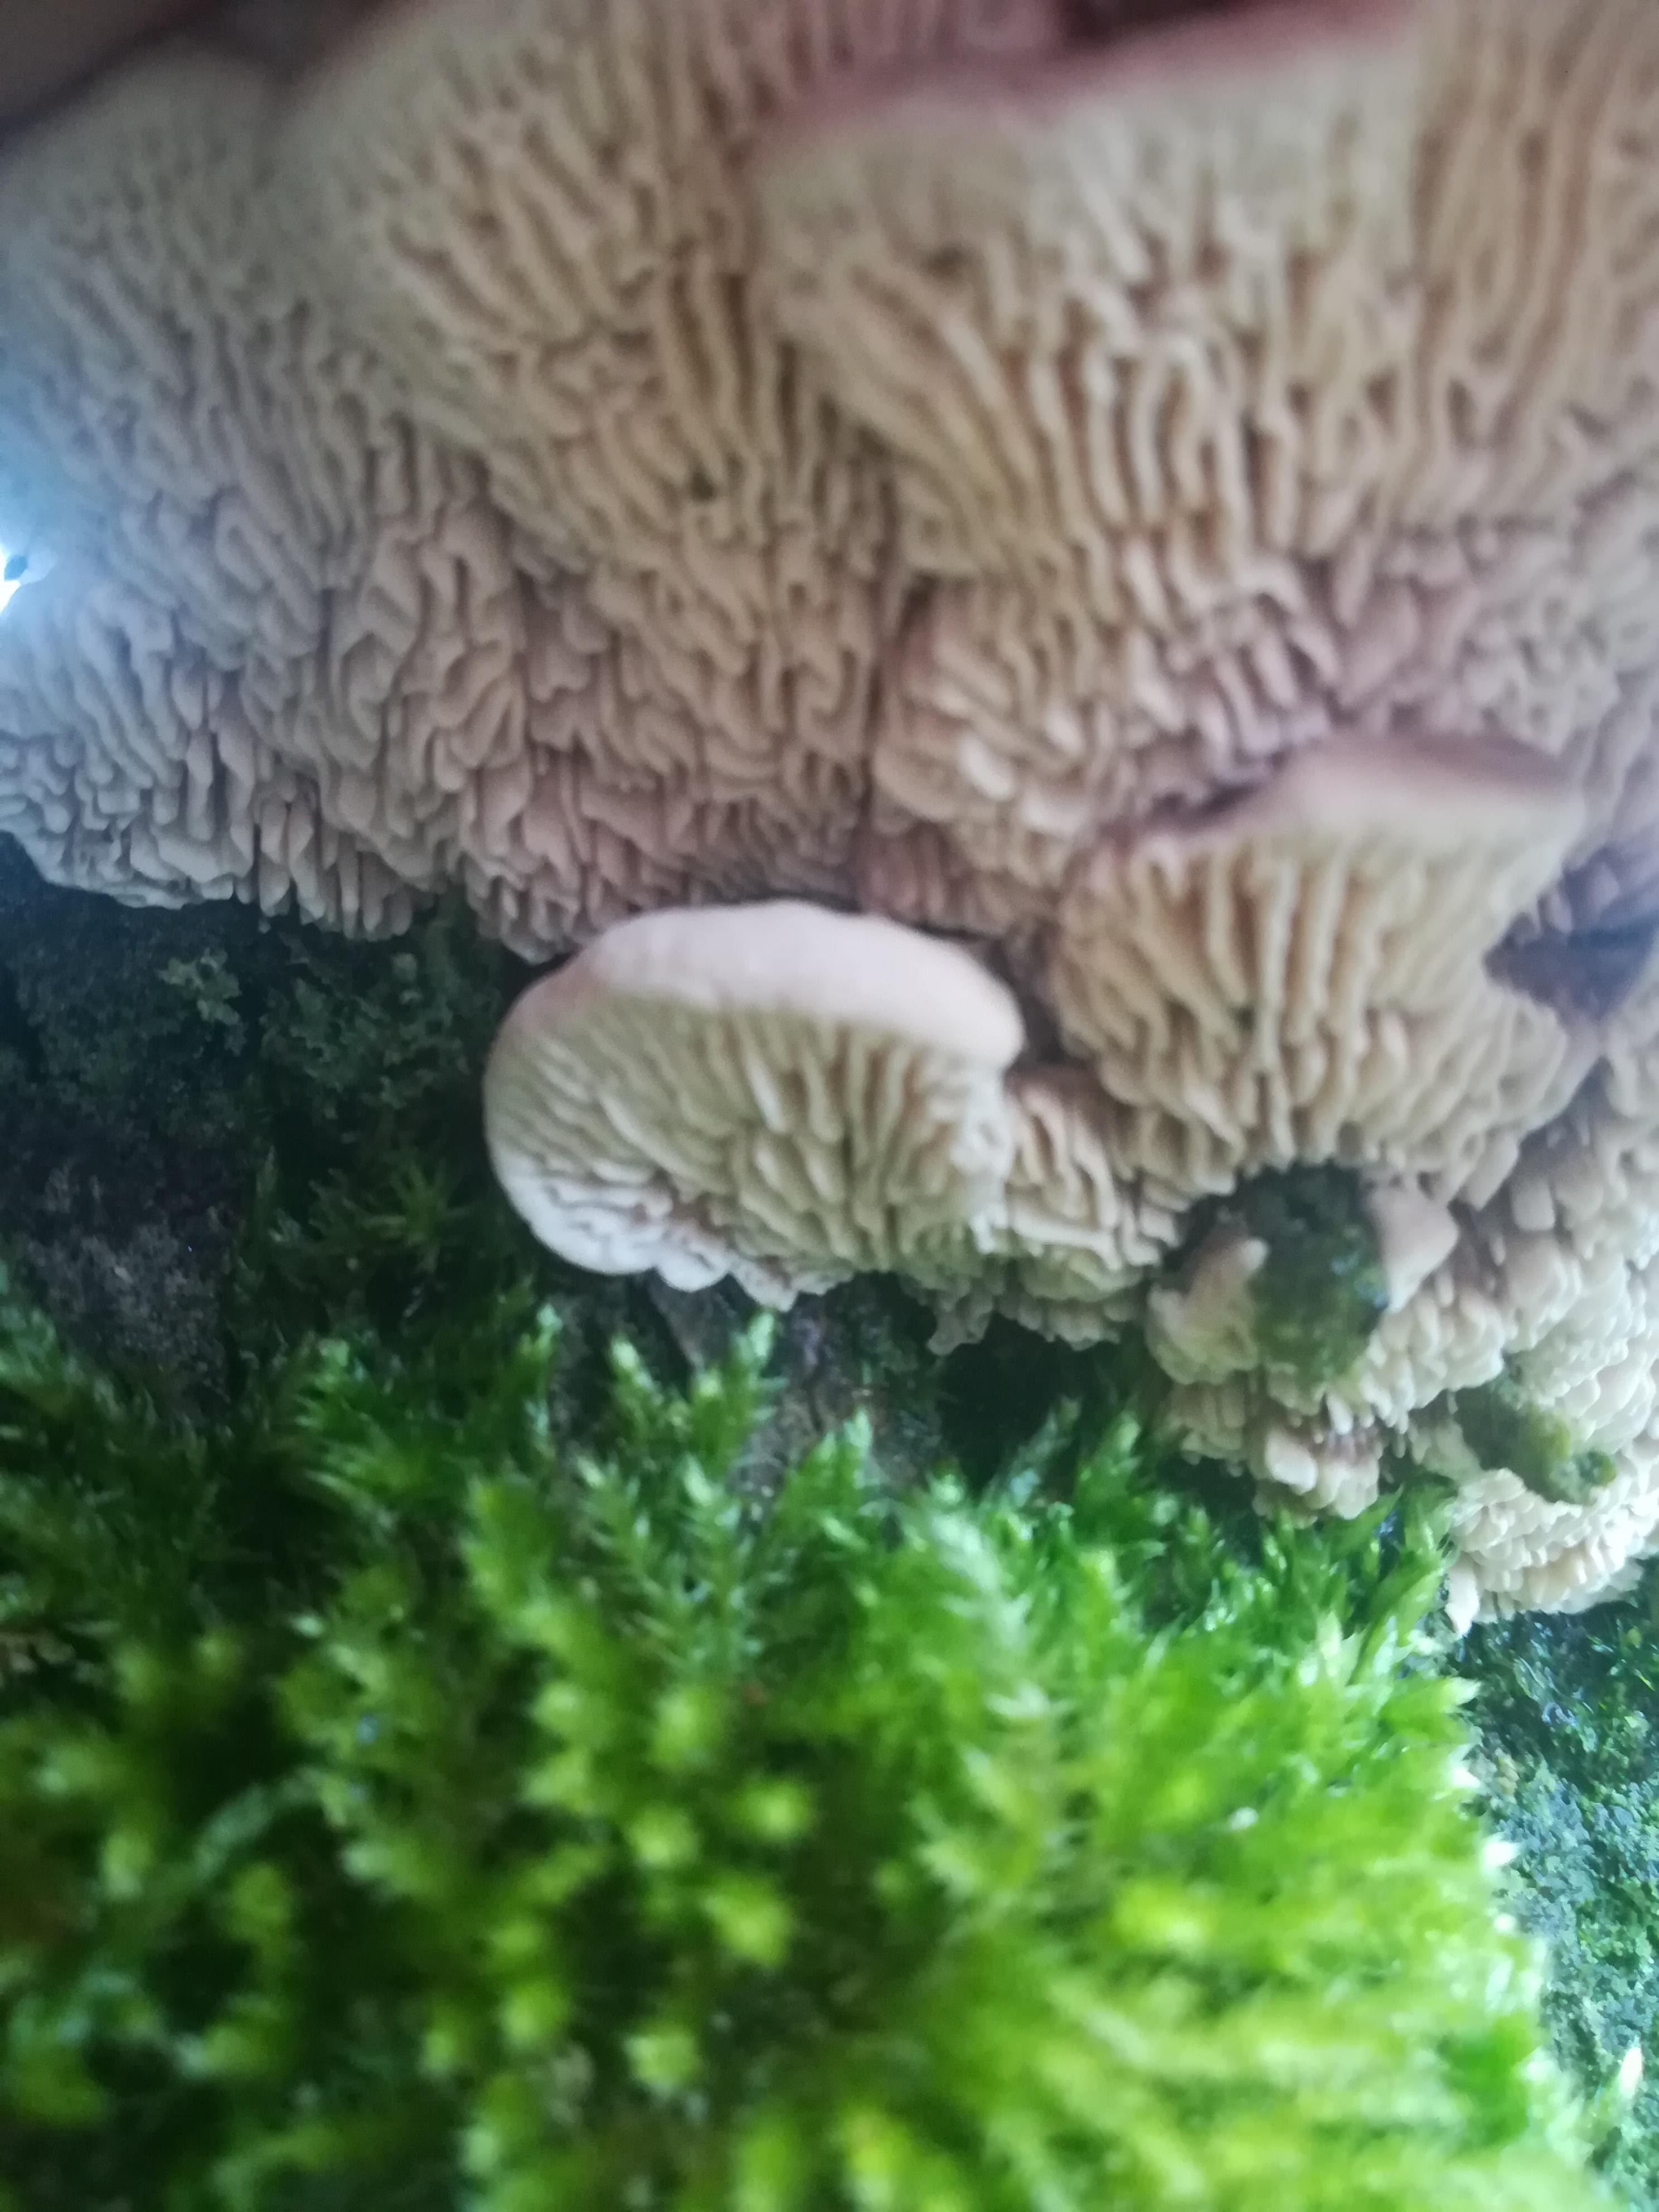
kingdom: Fungi
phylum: Basidiomycota
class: Agaricomycetes
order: Polyporales
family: Polyporaceae
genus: Lenzites
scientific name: Lenzites betulinus
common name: birke-læderporesvamp
